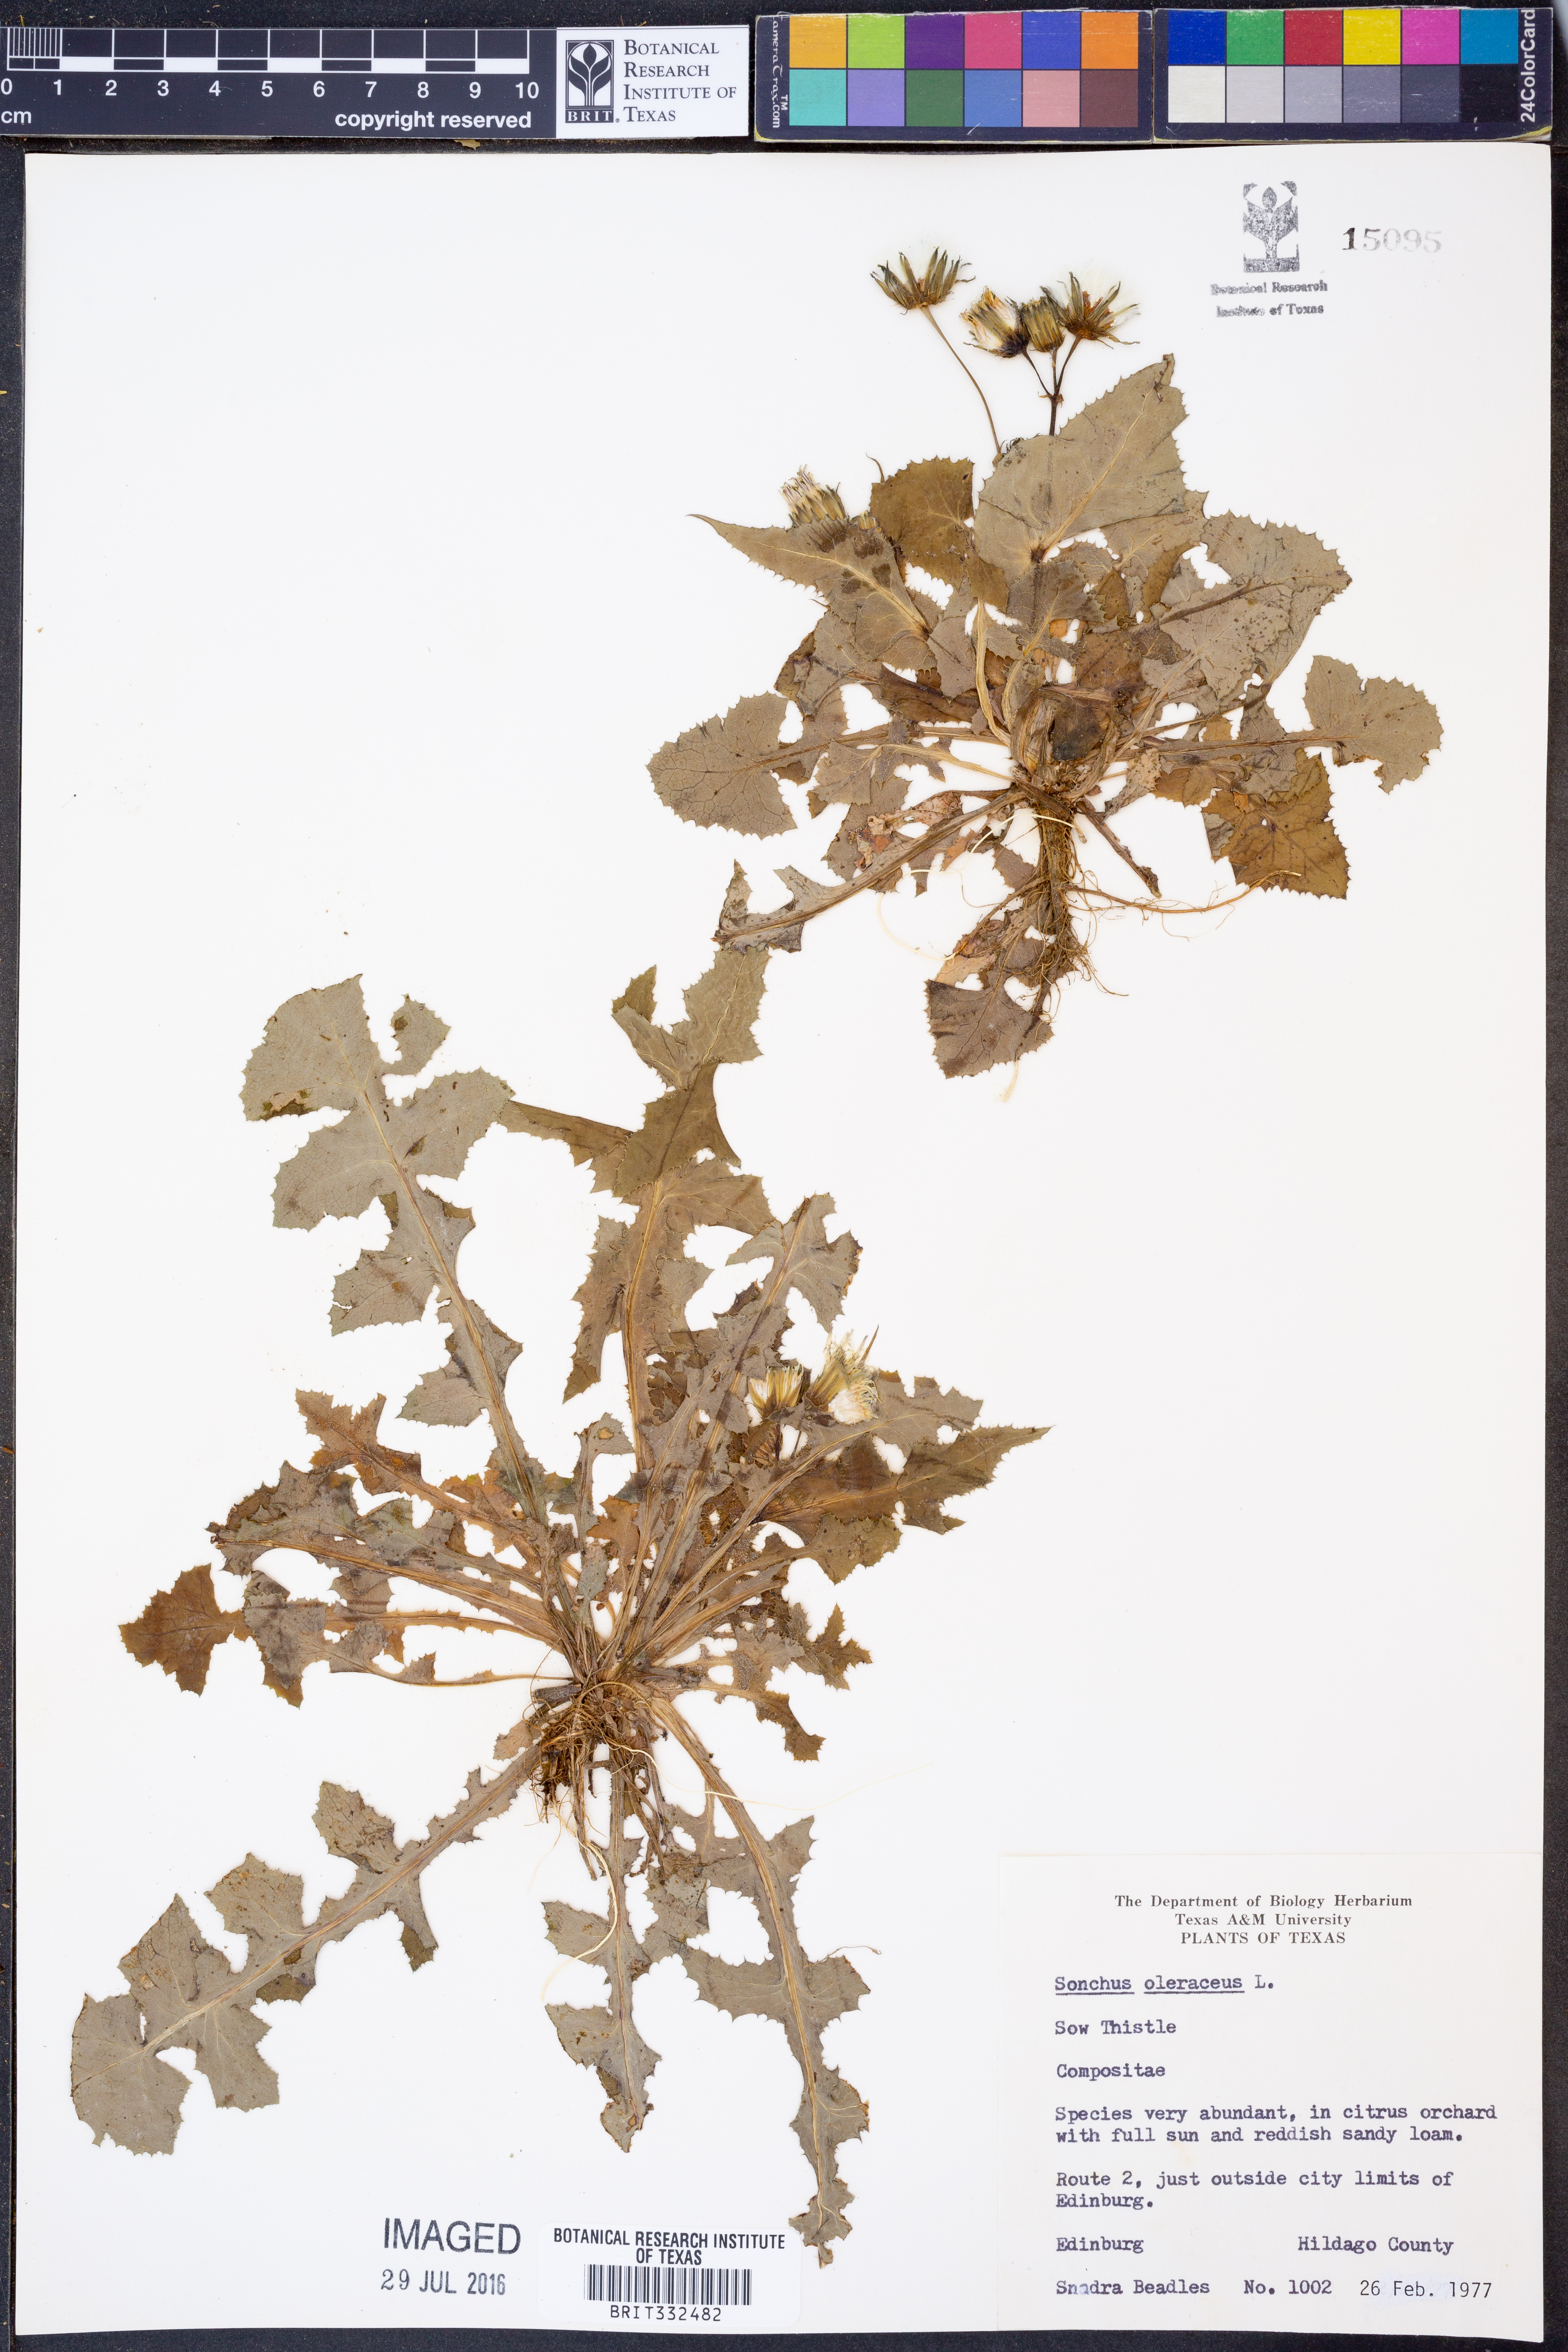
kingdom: Plantae
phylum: Tracheophyta
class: Magnoliopsida
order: Asterales
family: Asteraceae
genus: Sonchus
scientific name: Sonchus oleraceus
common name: Common sowthistle
